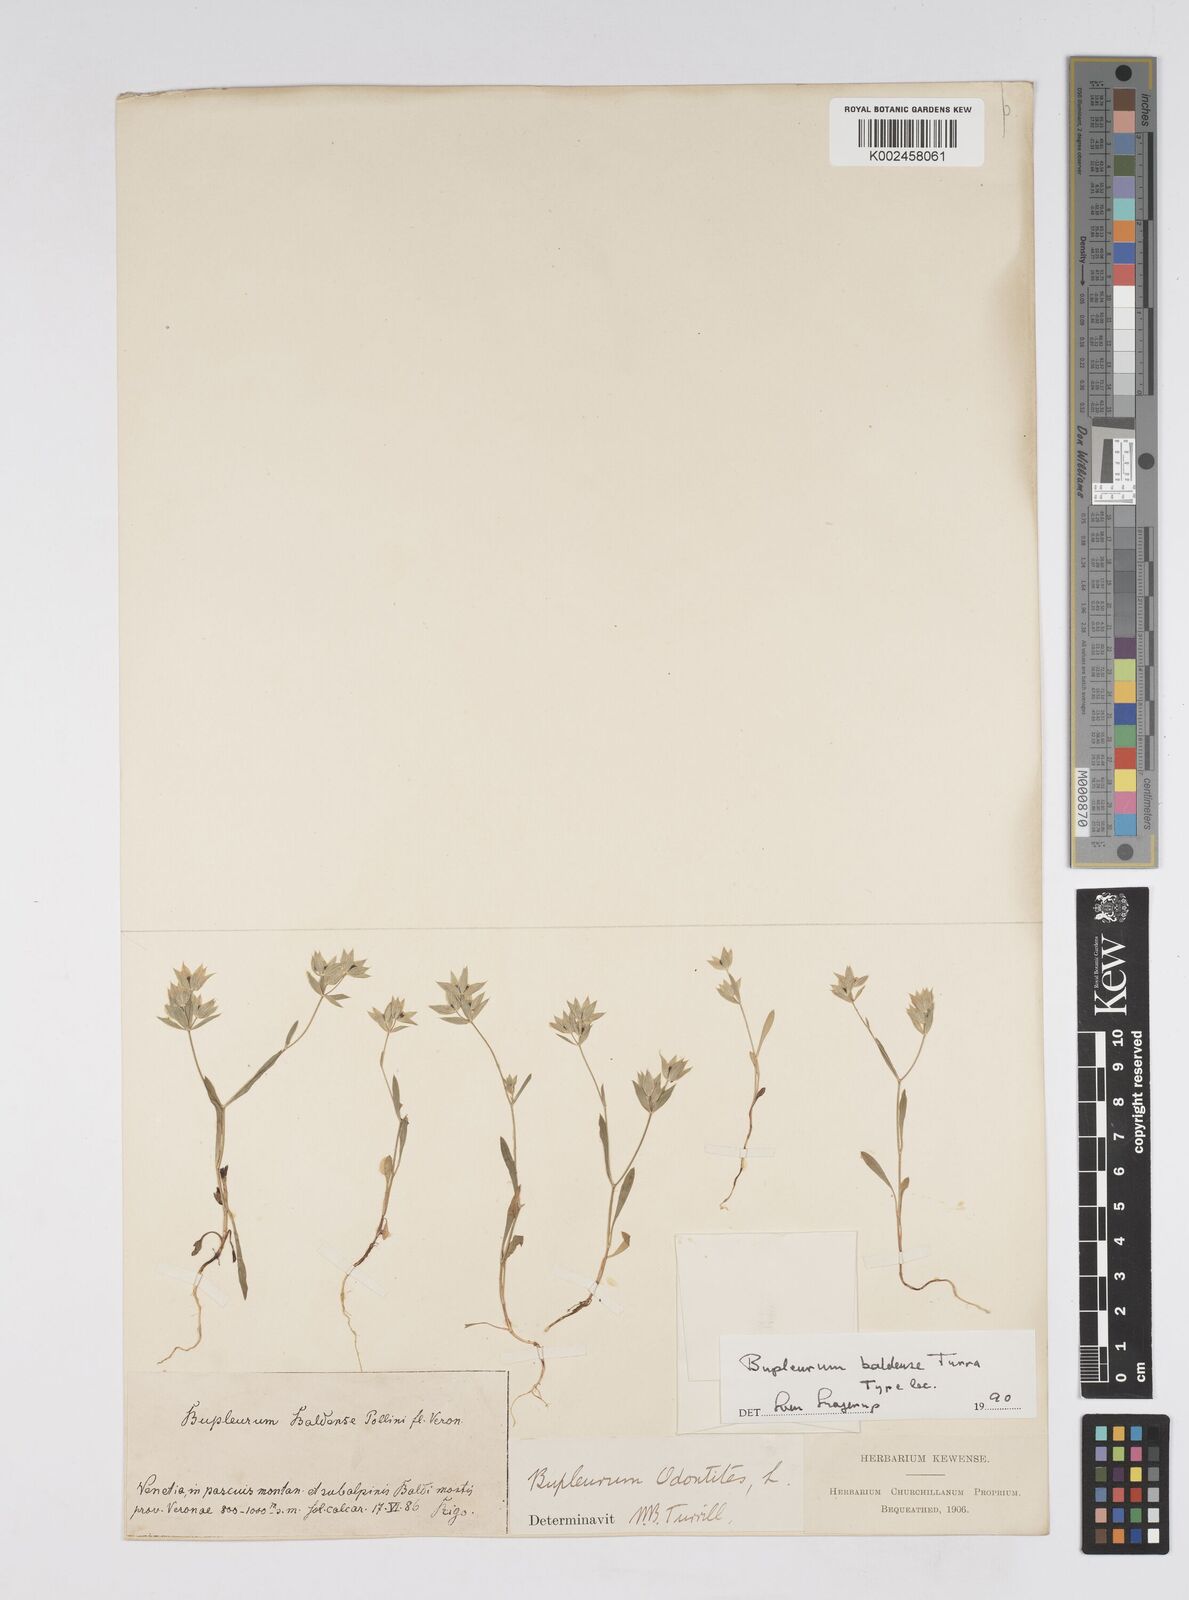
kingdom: Plantae
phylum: Tracheophyta
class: Magnoliopsida
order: Apiales
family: Apiaceae
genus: Bupleurum
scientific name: Bupleurum baldense
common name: Small hare's-ear
